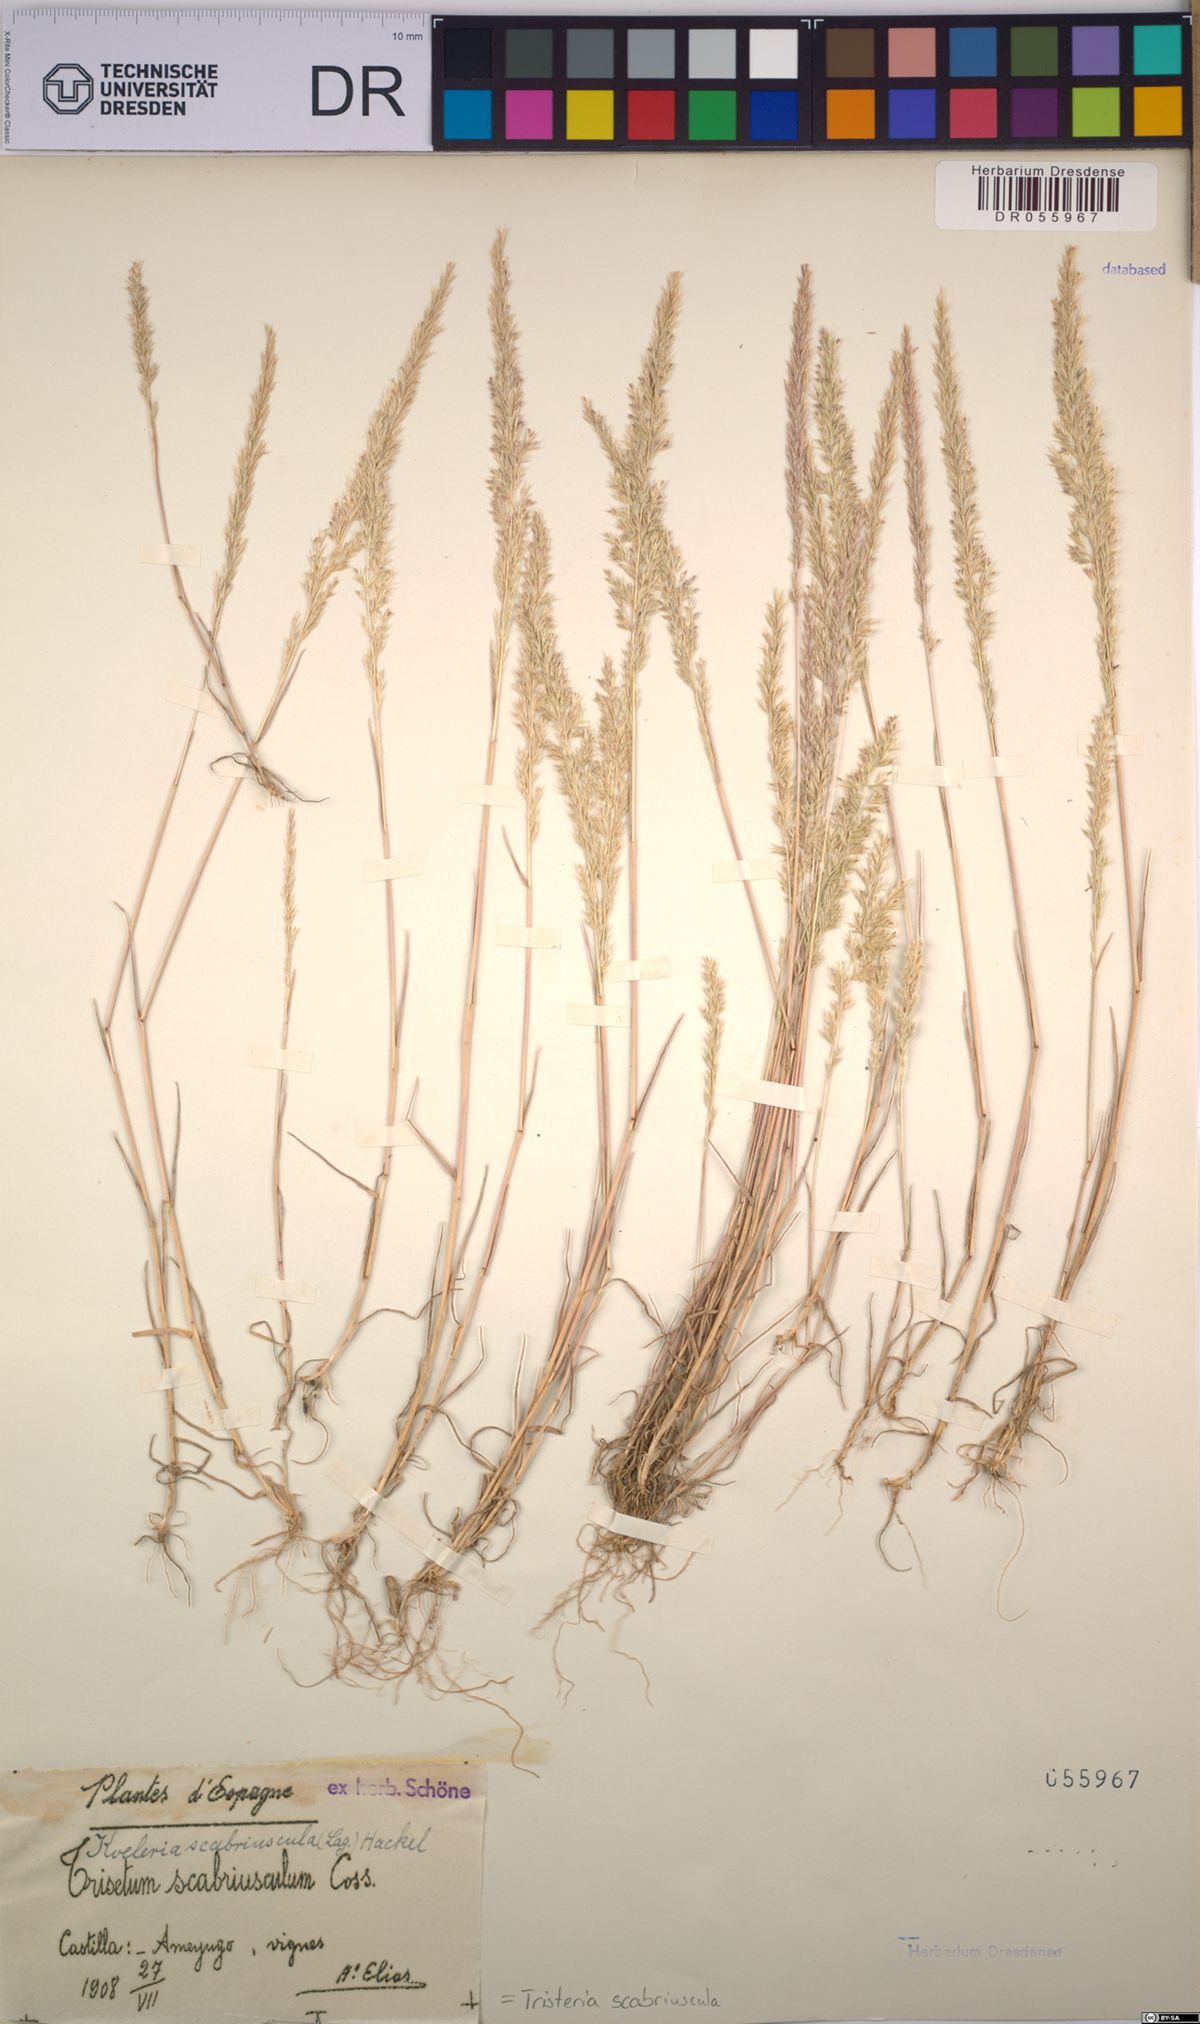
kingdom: Plantae
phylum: Tracheophyta
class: Liliopsida
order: Poales
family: Poaceae
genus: Trisetaria
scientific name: Trisetaria scabriuscula
